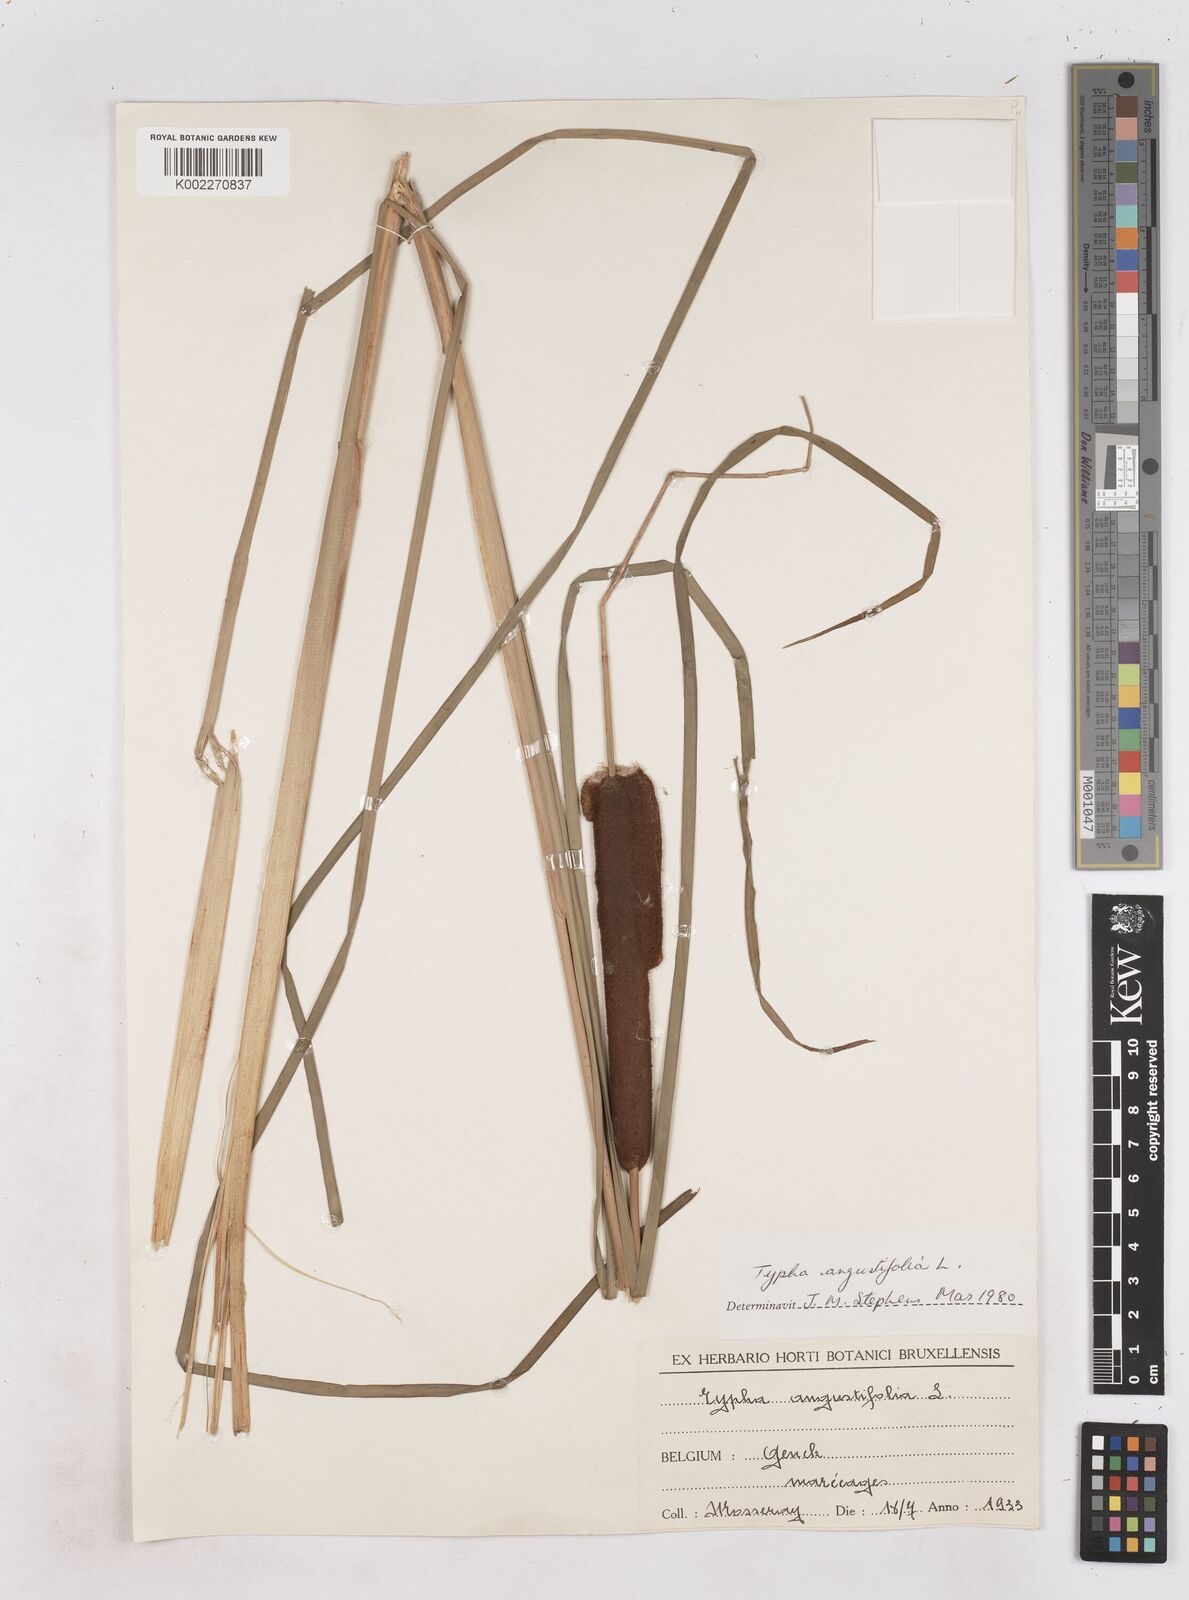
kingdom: Plantae
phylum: Tracheophyta
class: Liliopsida
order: Poales
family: Typhaceae
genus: Typha
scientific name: Typha angustifolia
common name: Lesser bulrush
